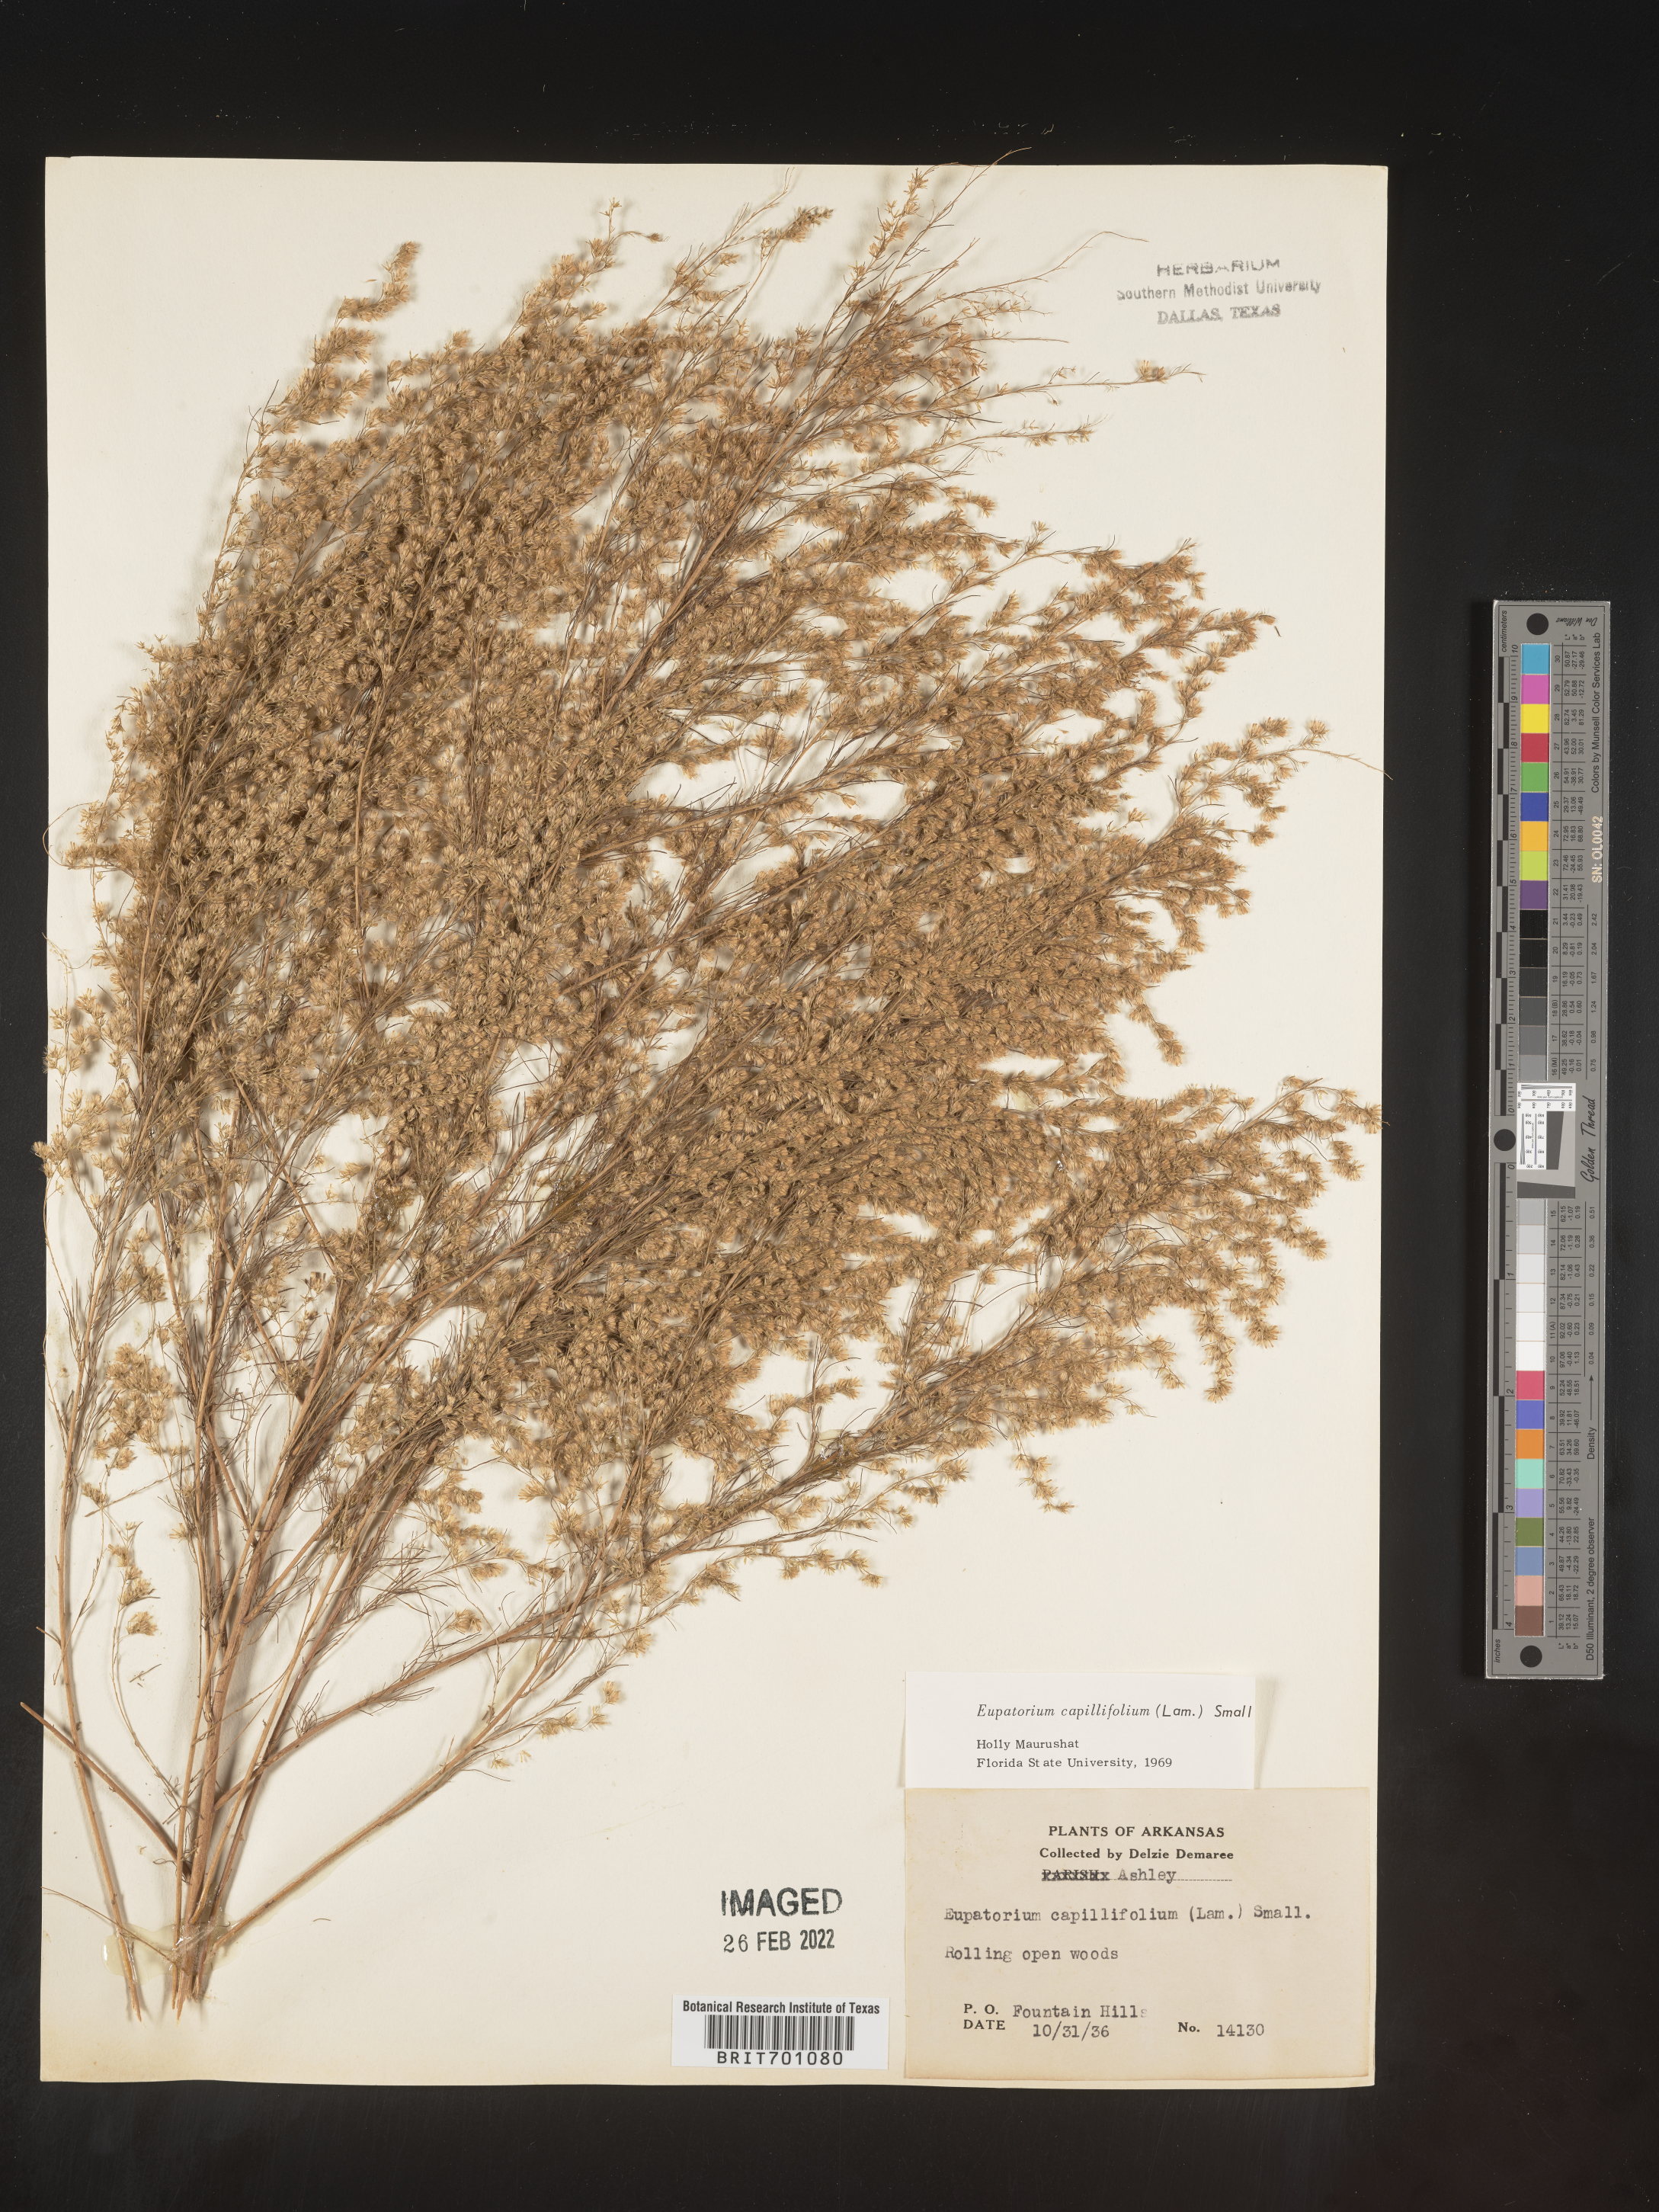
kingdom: Plantae
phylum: Tracheophyta
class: Magnoliopsida
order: Asterales
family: Asteraceae
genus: Eupatorium
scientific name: Eupatorium capillifolium
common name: Dog-fennel
